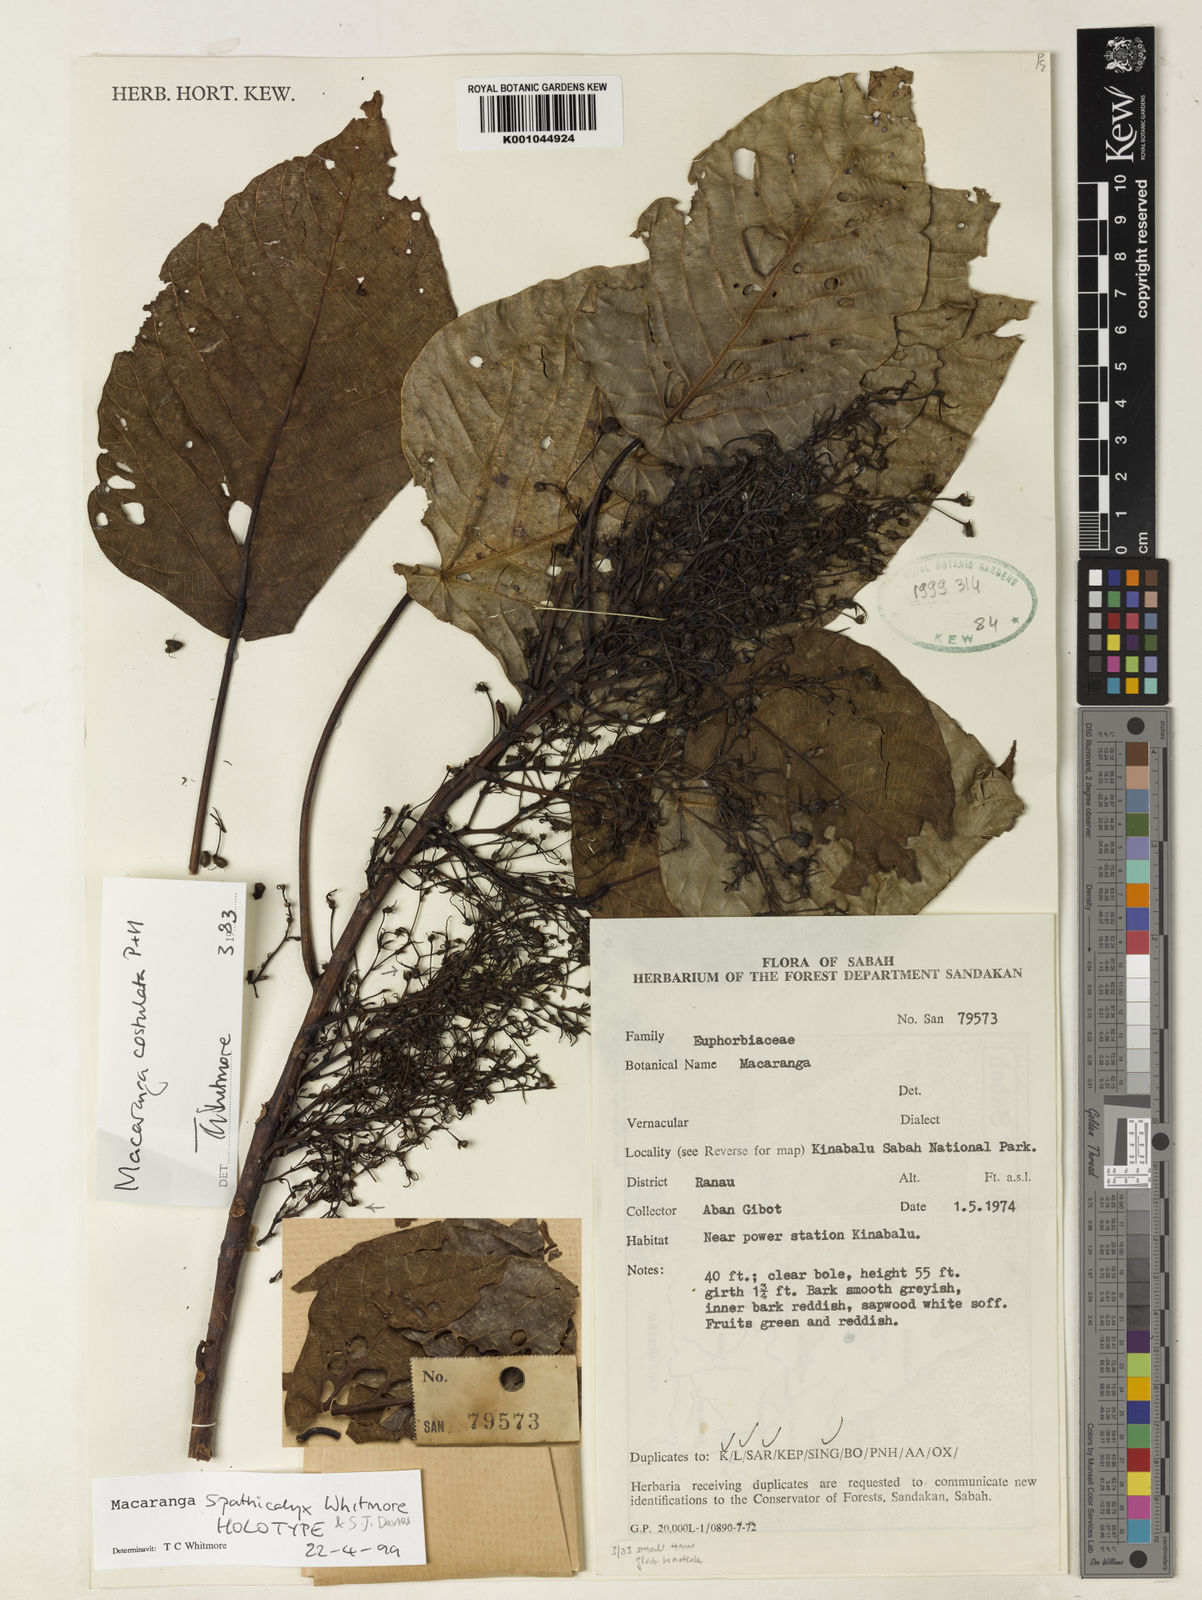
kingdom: Plantae
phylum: Tracheophyta
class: Magnoliopsida
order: Malpighiales
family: Euphorbiaceae
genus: Macaranga
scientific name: Macaranga spathicalyx
